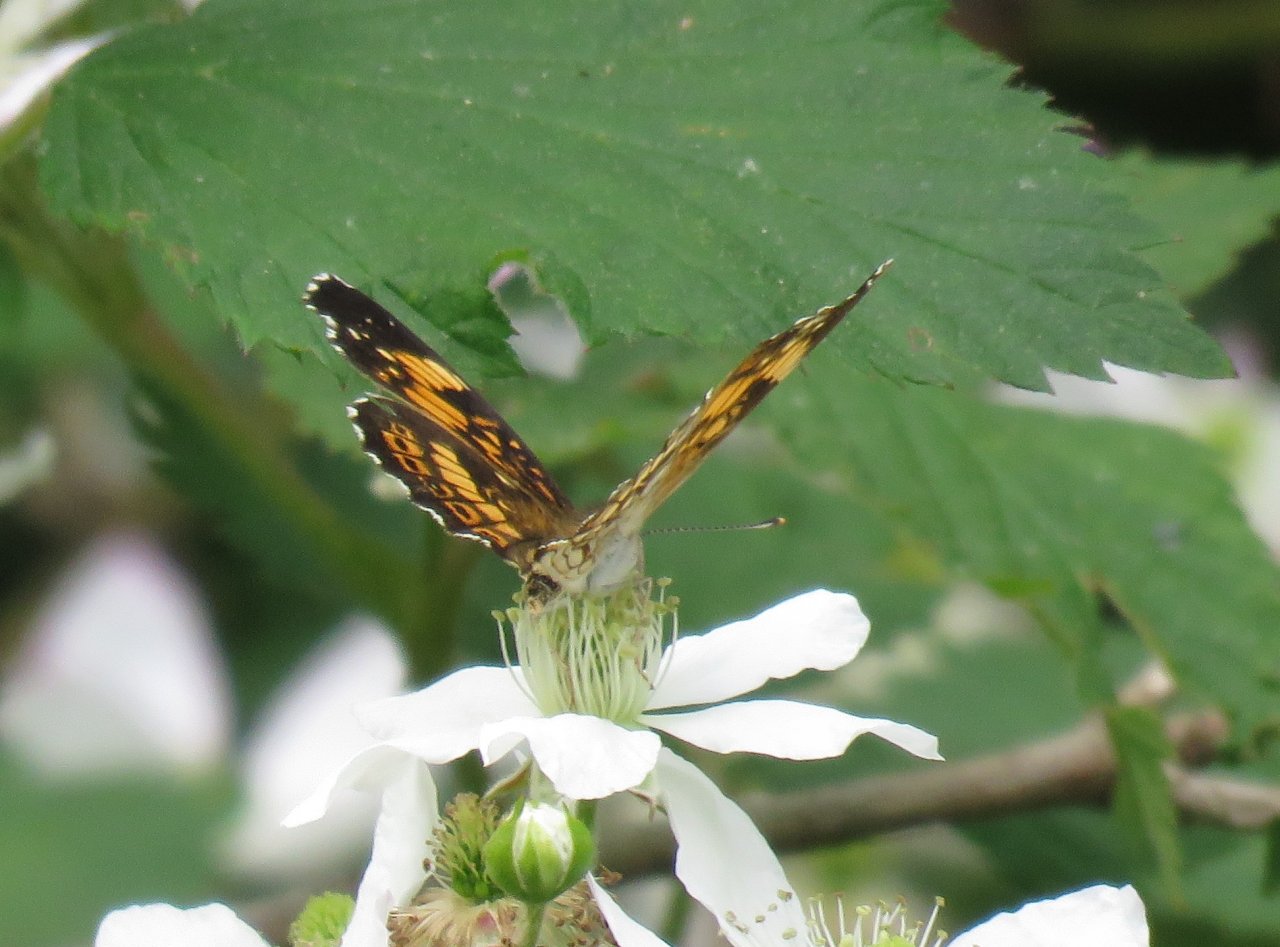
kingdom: Animalia
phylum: Arthropoda
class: Insecta
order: Lepidoptera
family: Nymphalidae
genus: Chlosyne
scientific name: Chlosyne nycteis
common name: Silvery Checkerspot
